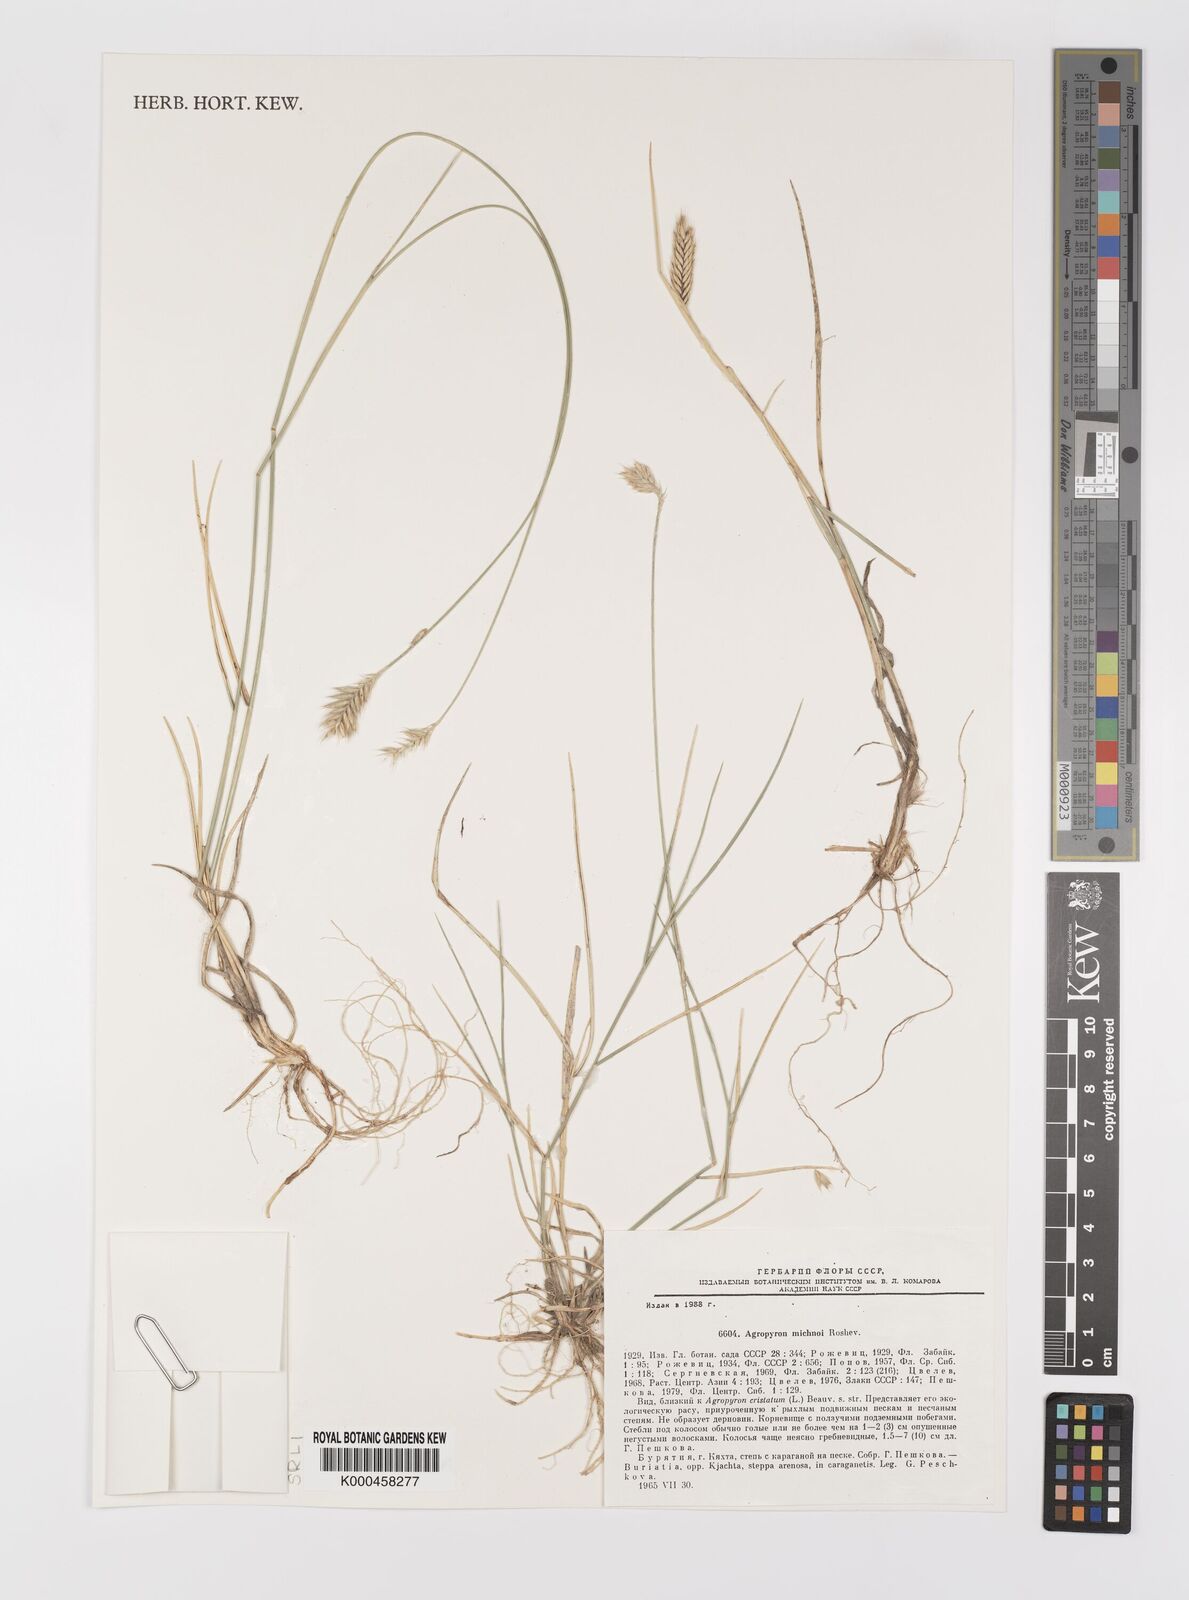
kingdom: Plantae
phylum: Tracheophyta
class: Liliopsida
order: Poales
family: Poaceae
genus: Agropyron
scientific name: Agropyron michnoi
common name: Michno's wheatgrass
